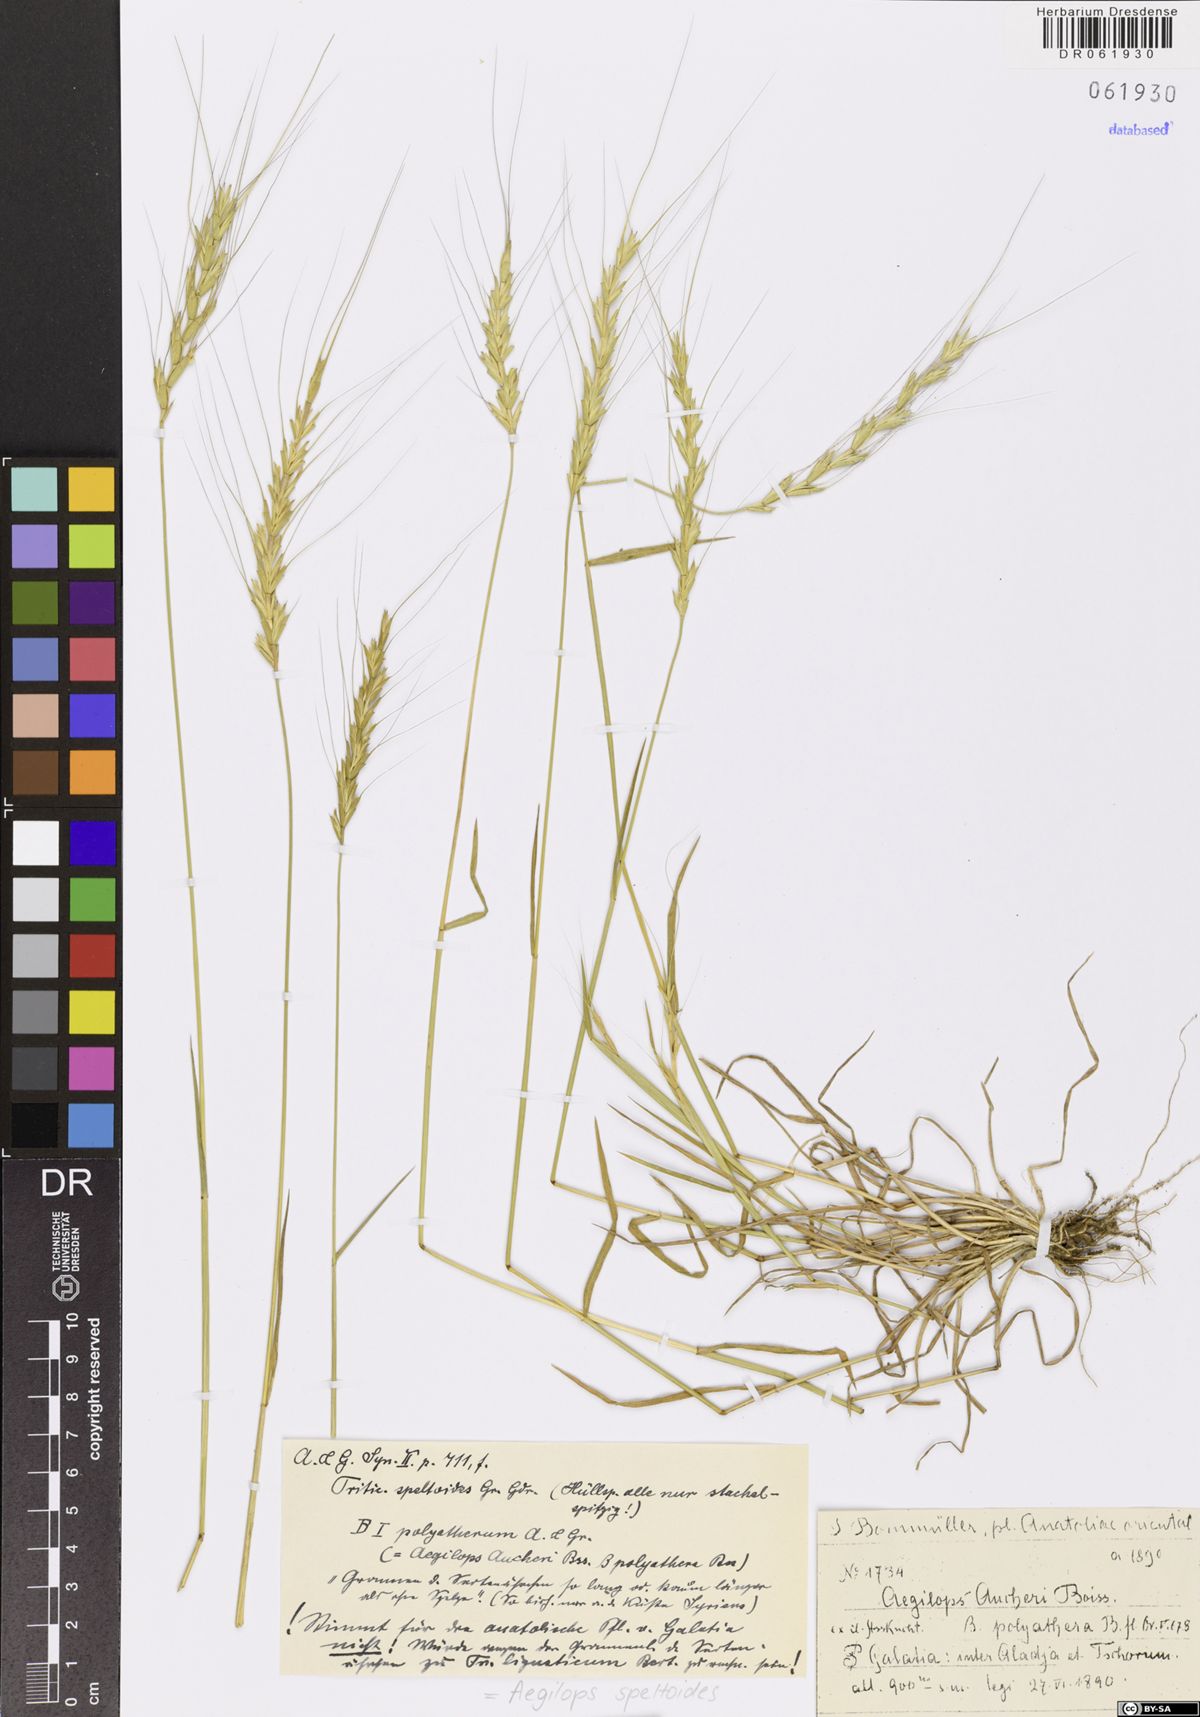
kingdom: Plantae
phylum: Tracheophyta
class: Liliopsida
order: Poales
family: Poaceae
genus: Aegilops
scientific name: Aegilops speltoides
